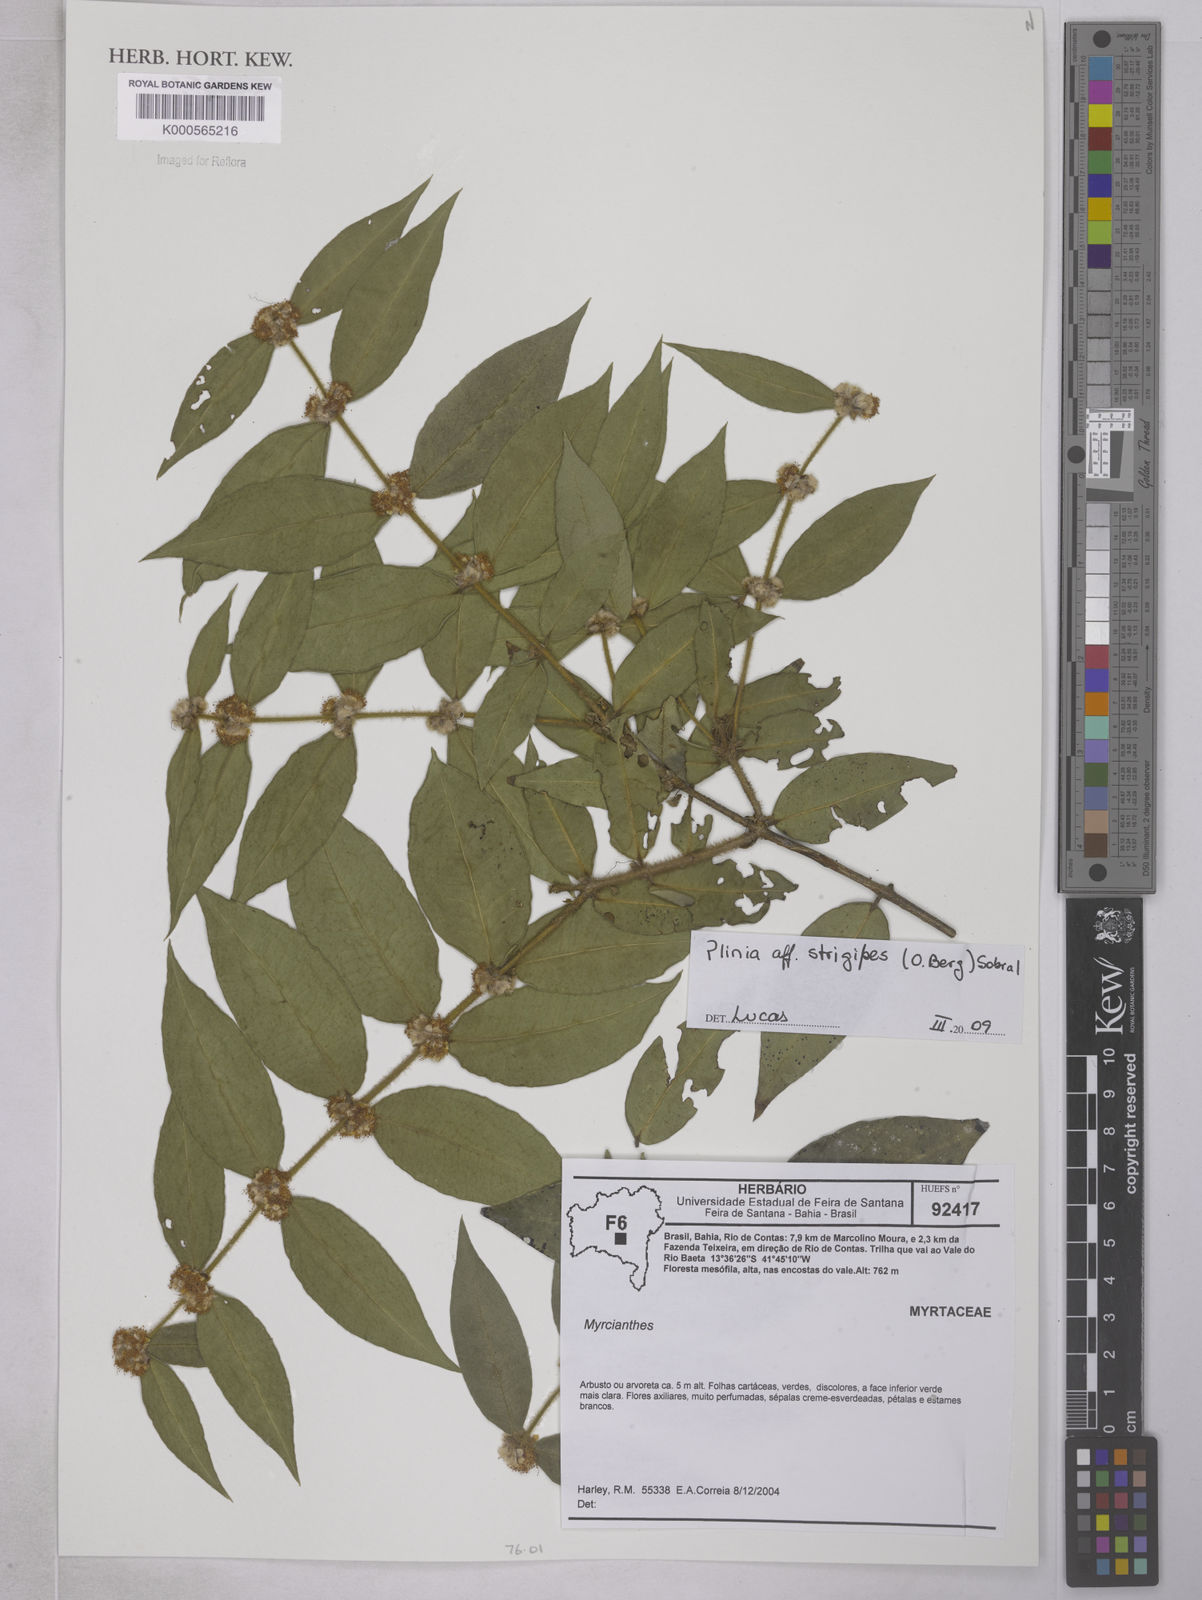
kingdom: Plantae
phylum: Tracheophyta
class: Magnoliopsida
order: Myrtales
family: Myrtaceae
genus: Myrciaria
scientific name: Myrciaria strigipes
